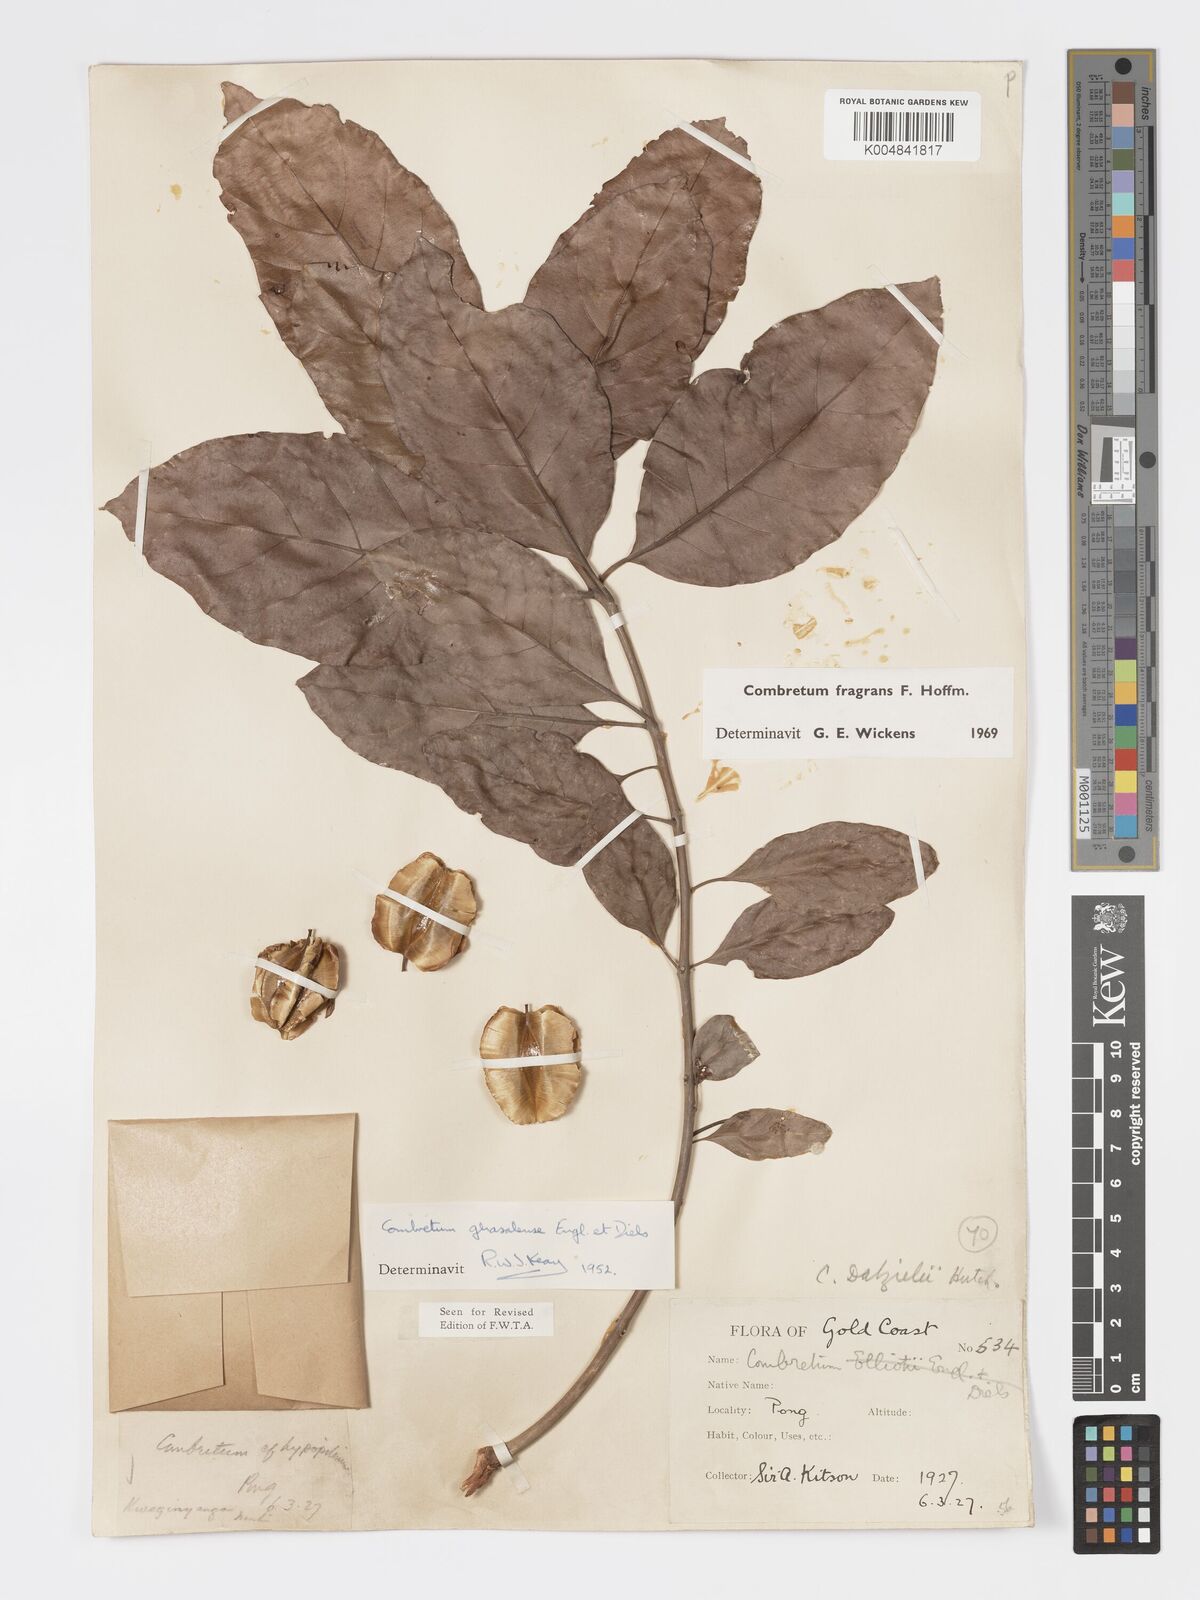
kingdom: Plantae
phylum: Tracheophyta
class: Magnoliopsida
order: Myrtales
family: Combretaceae
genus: Combretum
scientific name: Combretum adenogonium
